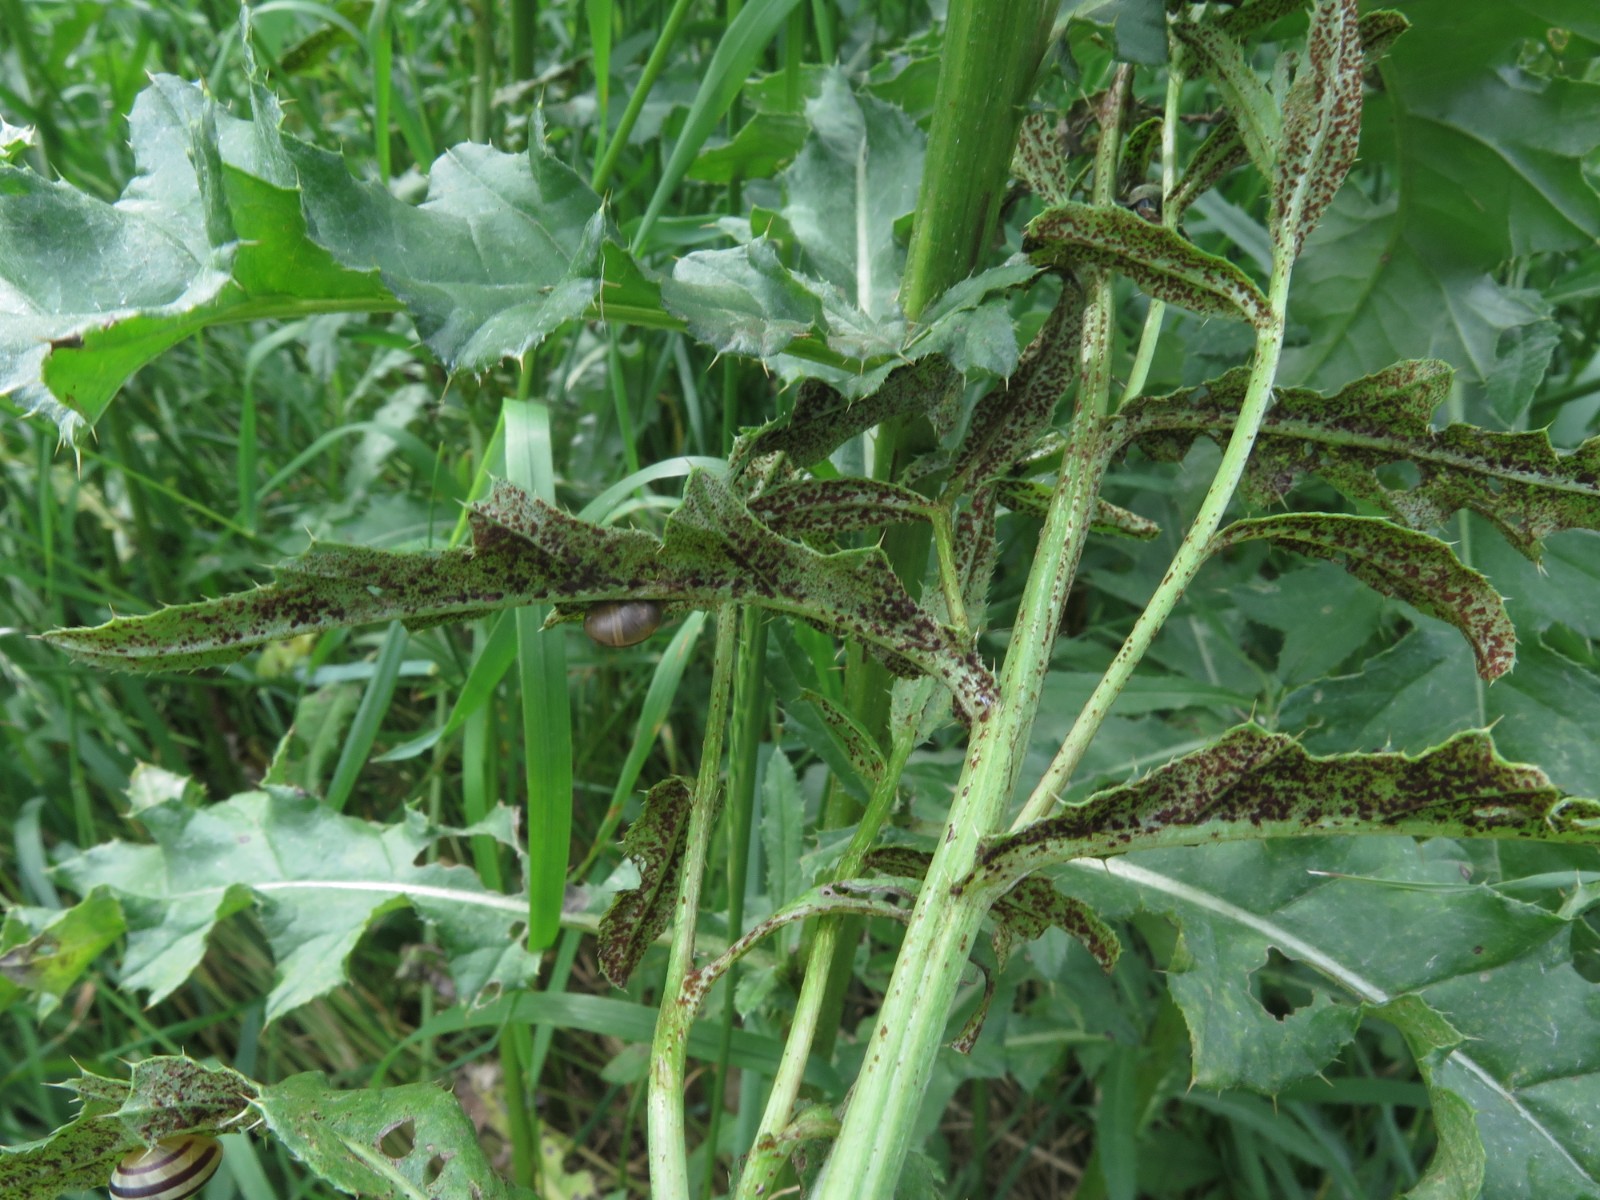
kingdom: Fungi
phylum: Basidiomycota
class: Pucciniomycetes
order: Pucciniales
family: Pucciniaceae
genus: Puccinia
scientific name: Puccinia suaveolens
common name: tidsel-tvecellerust
